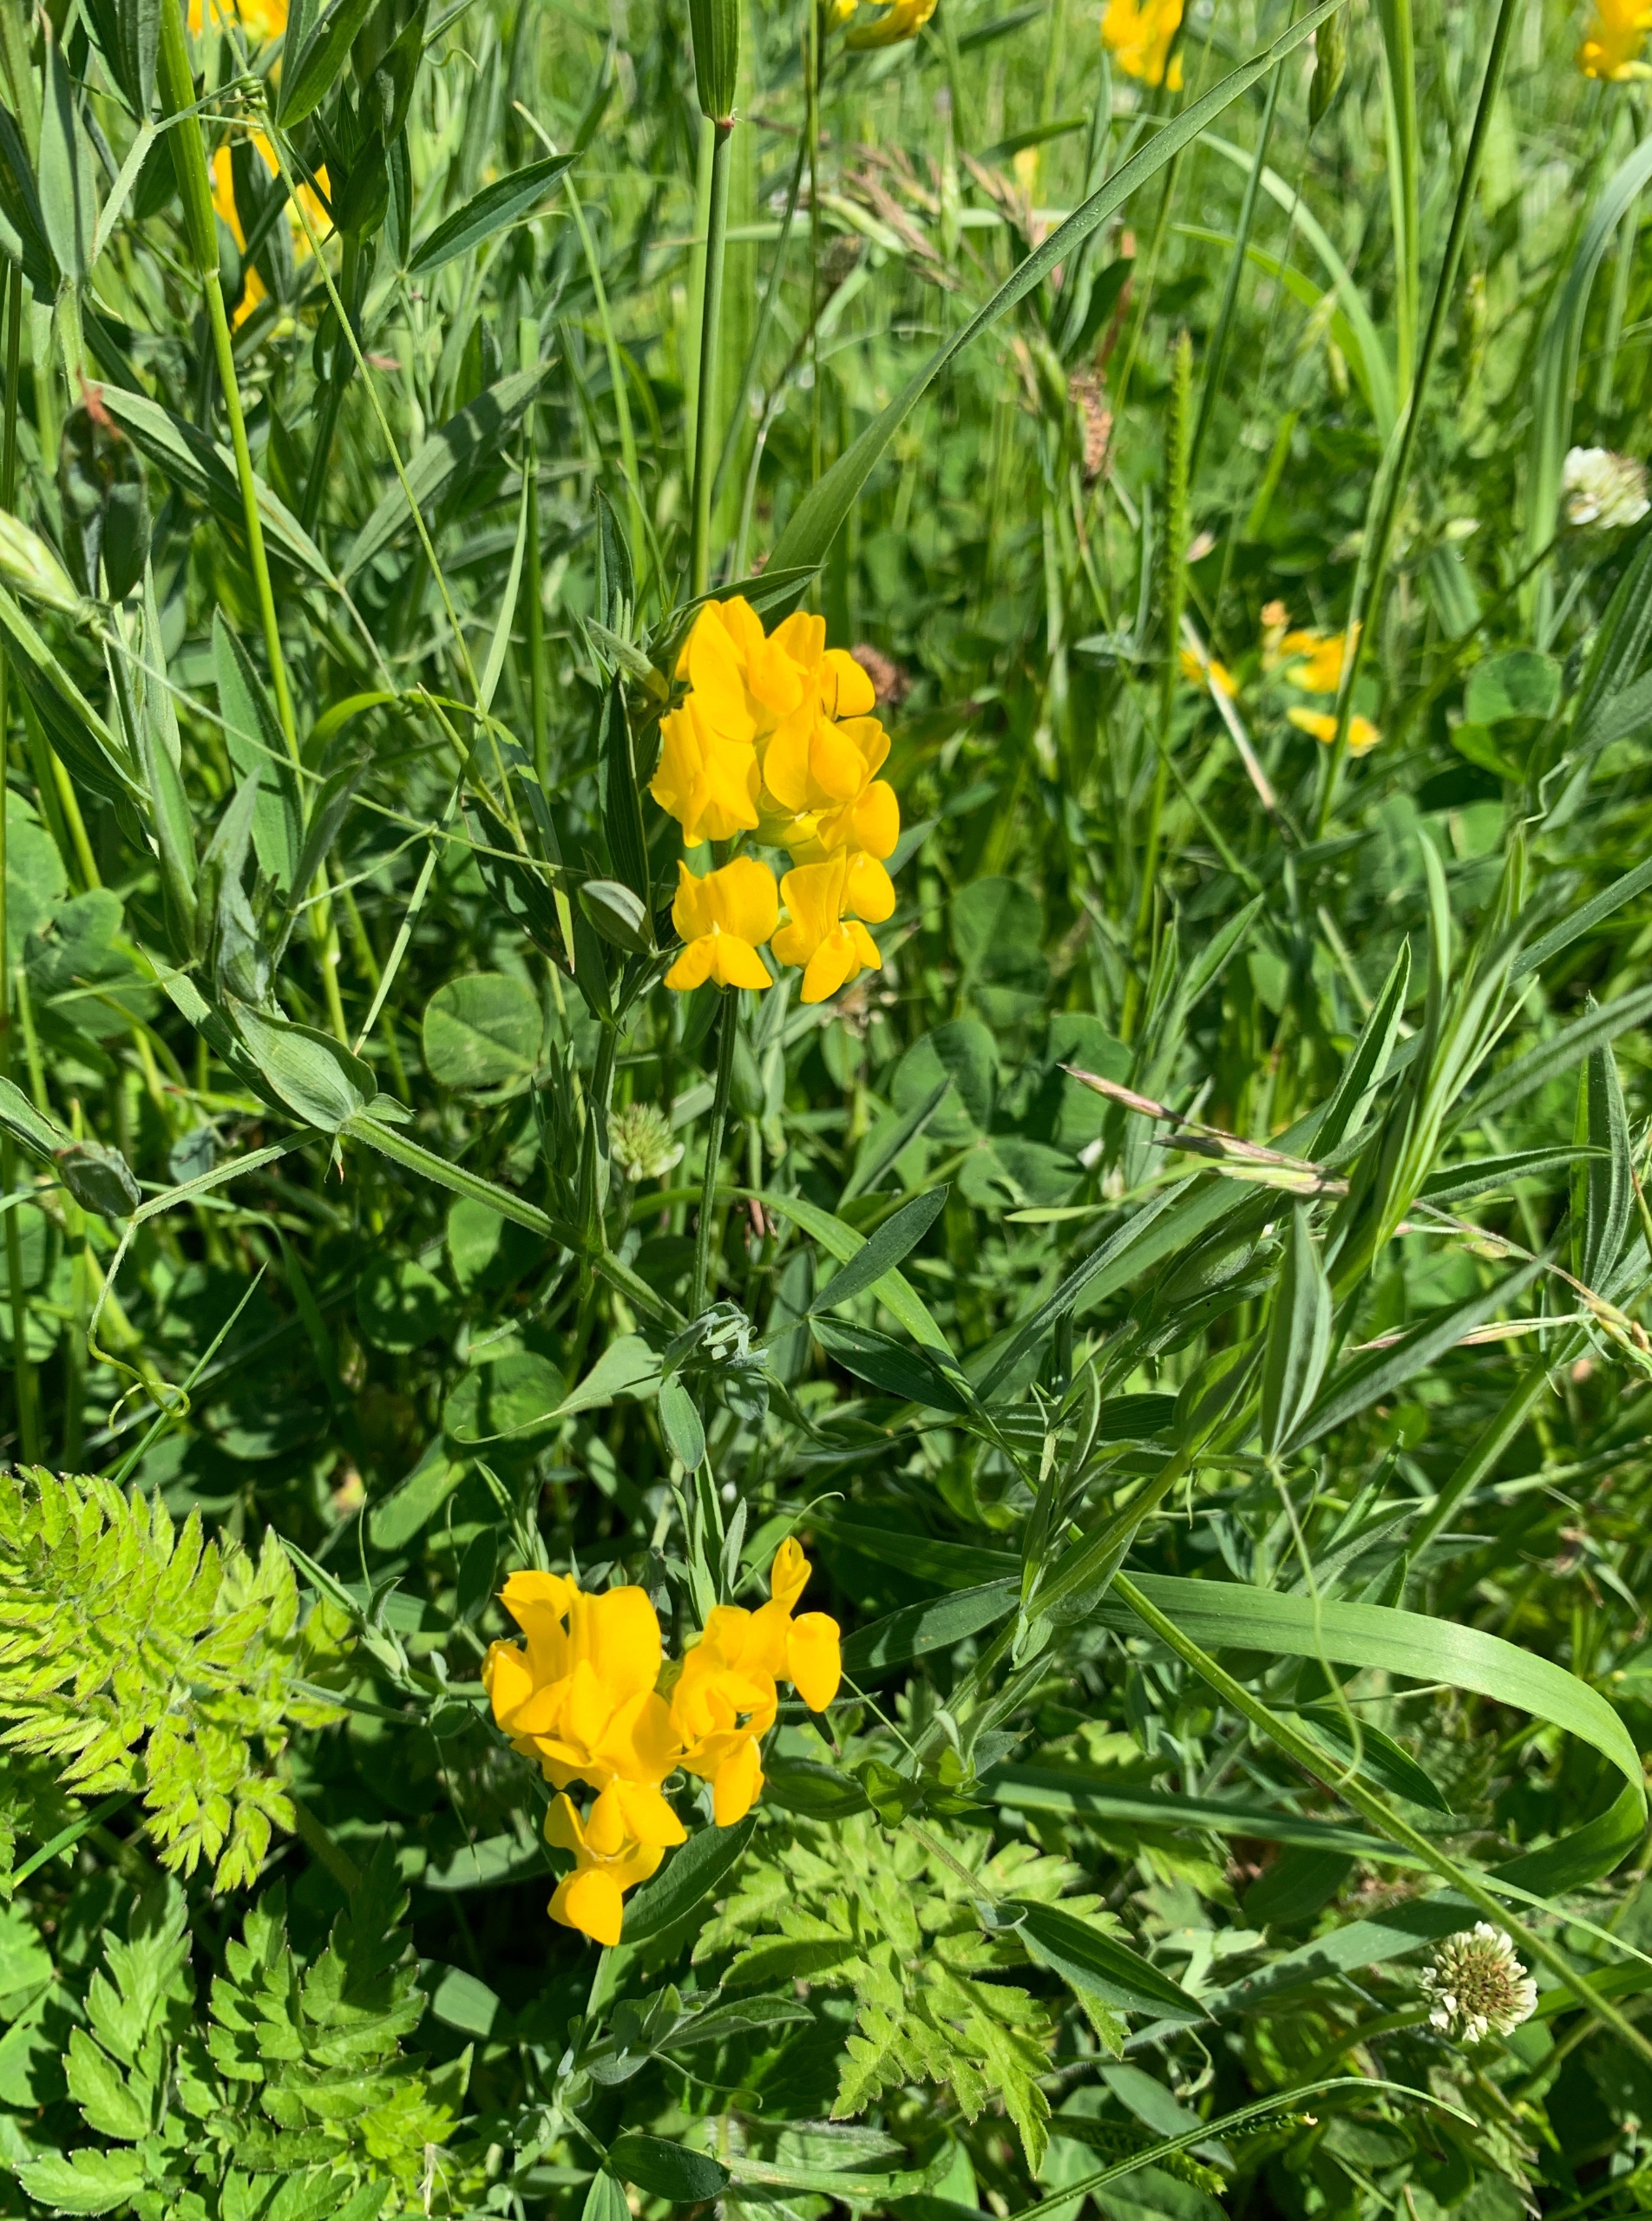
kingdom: Plantae
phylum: Tracheophyta
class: Magnoliopsida
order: Fabales
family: Fabaceae
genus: Lathyrus
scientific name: Lathyrus pratensis
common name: Gul fladbælg
